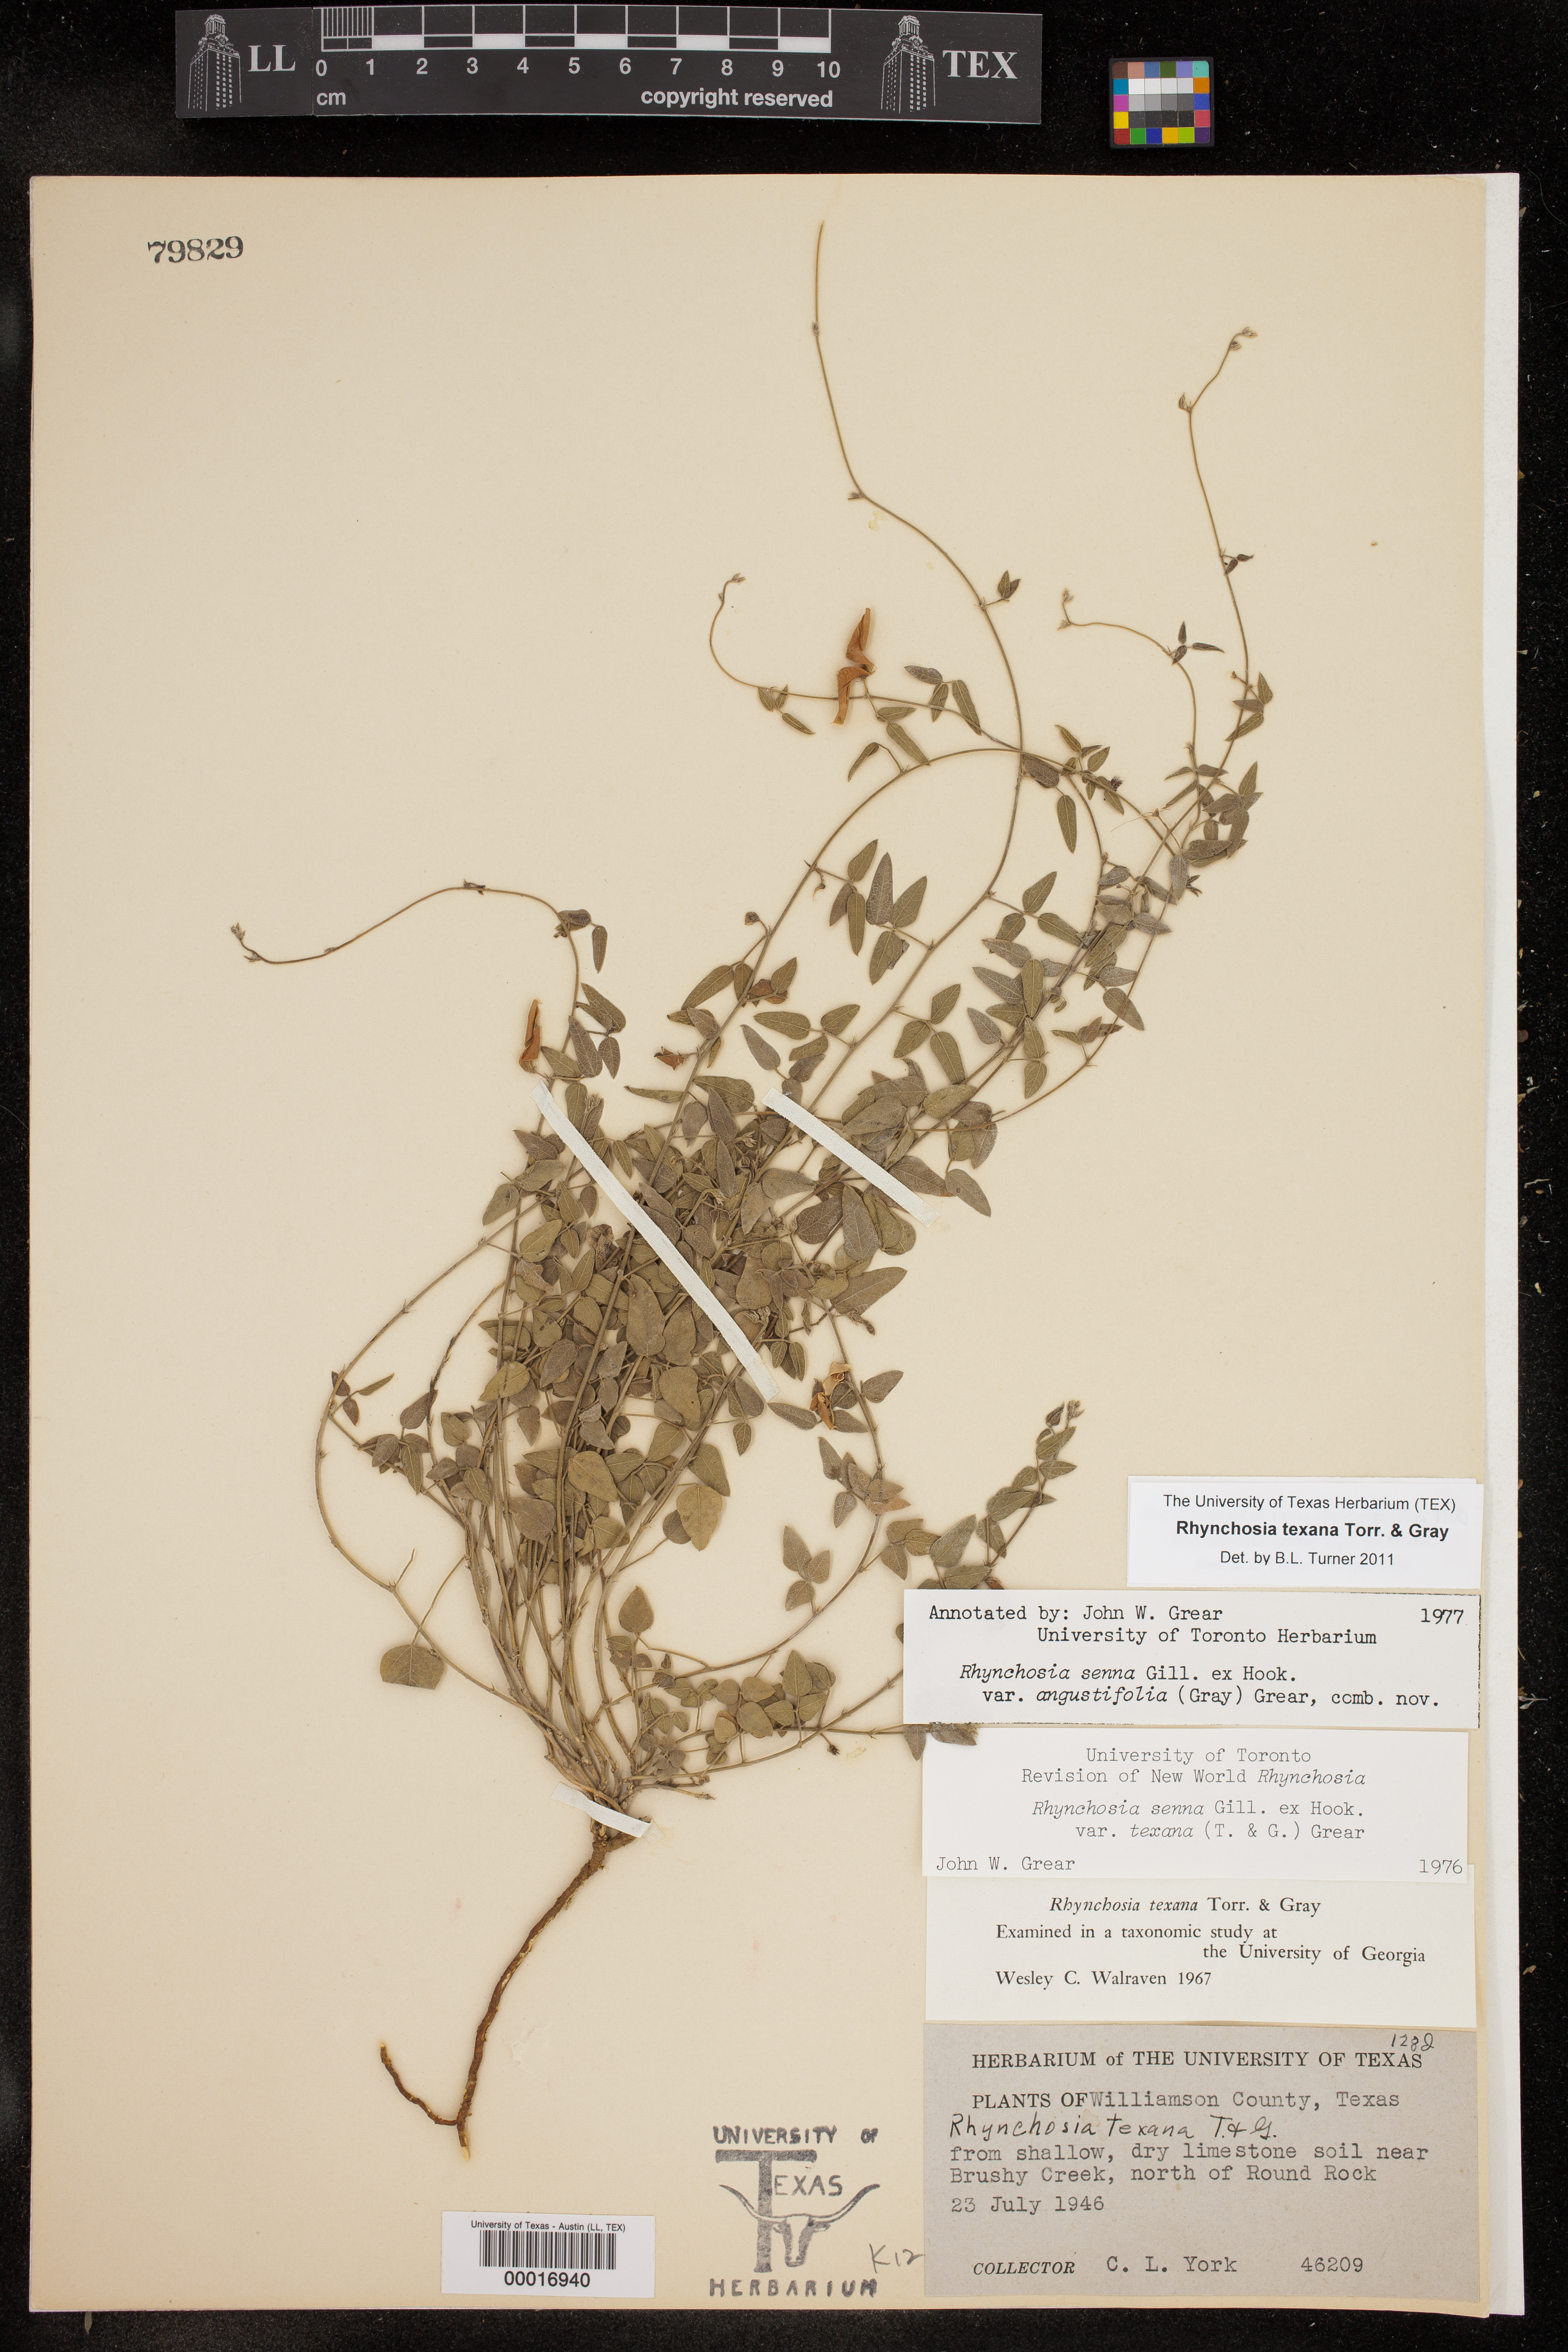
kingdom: Plantae
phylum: Tracheophyta
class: Magnoliopsida
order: Fabales
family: Fabaceae
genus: Rhynchosia
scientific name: Rhynchosia senna
